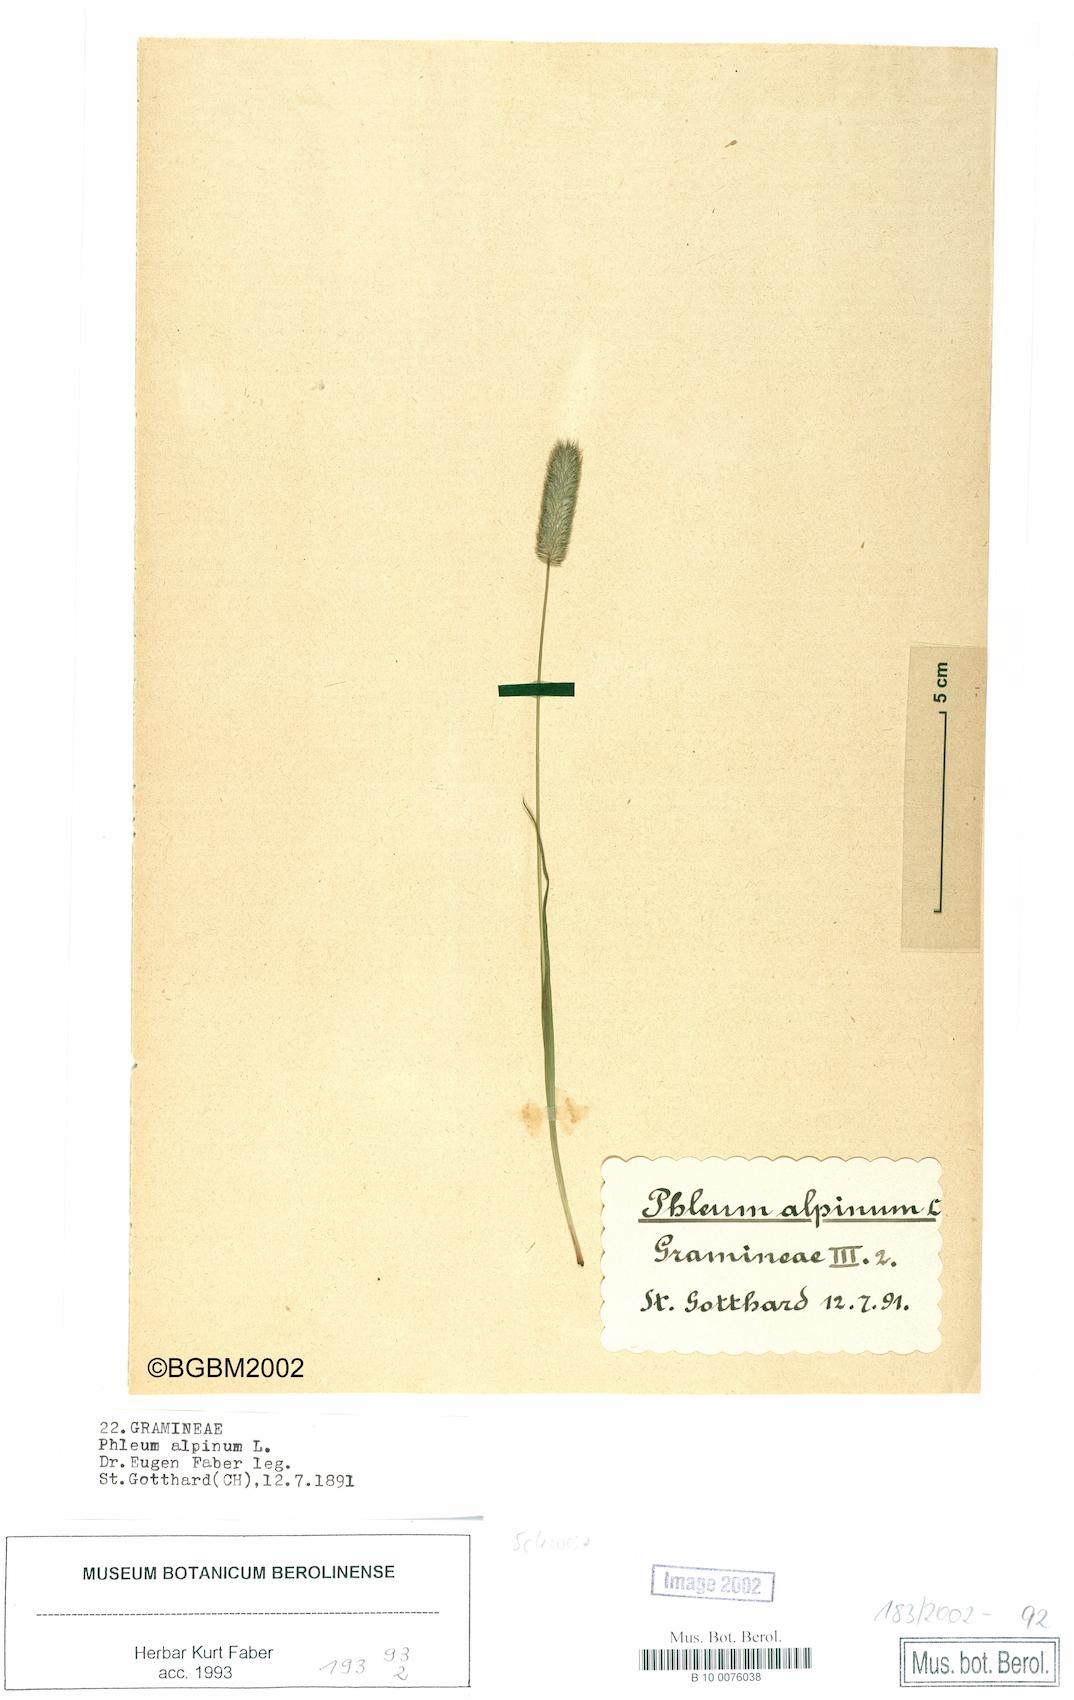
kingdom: Plantae
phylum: Tracheophyta
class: Liliopsida
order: Poales
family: Poaceae
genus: Phleum
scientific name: Phleum alpinum
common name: Alpine cat's-tail
